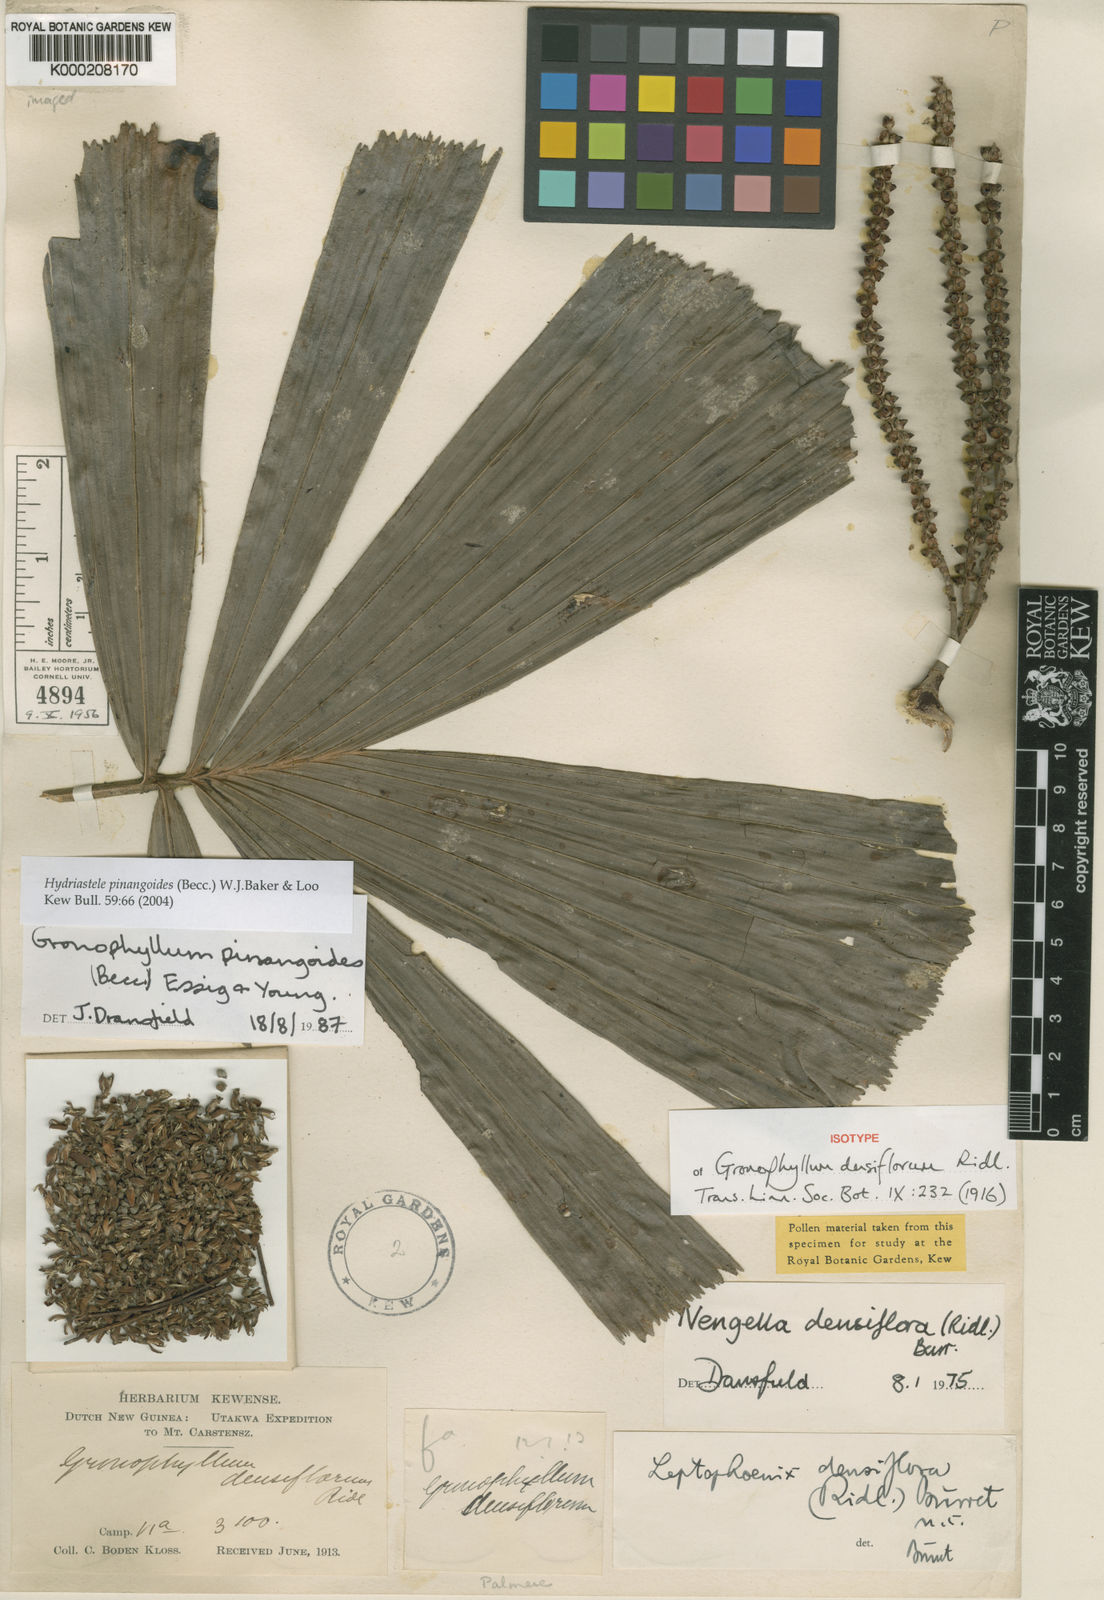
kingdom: Plantae
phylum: Tracheophyta
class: Liliopsida
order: Arecales
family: Arecaceae
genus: Hydriastele
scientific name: Hydriastele pinangoides
